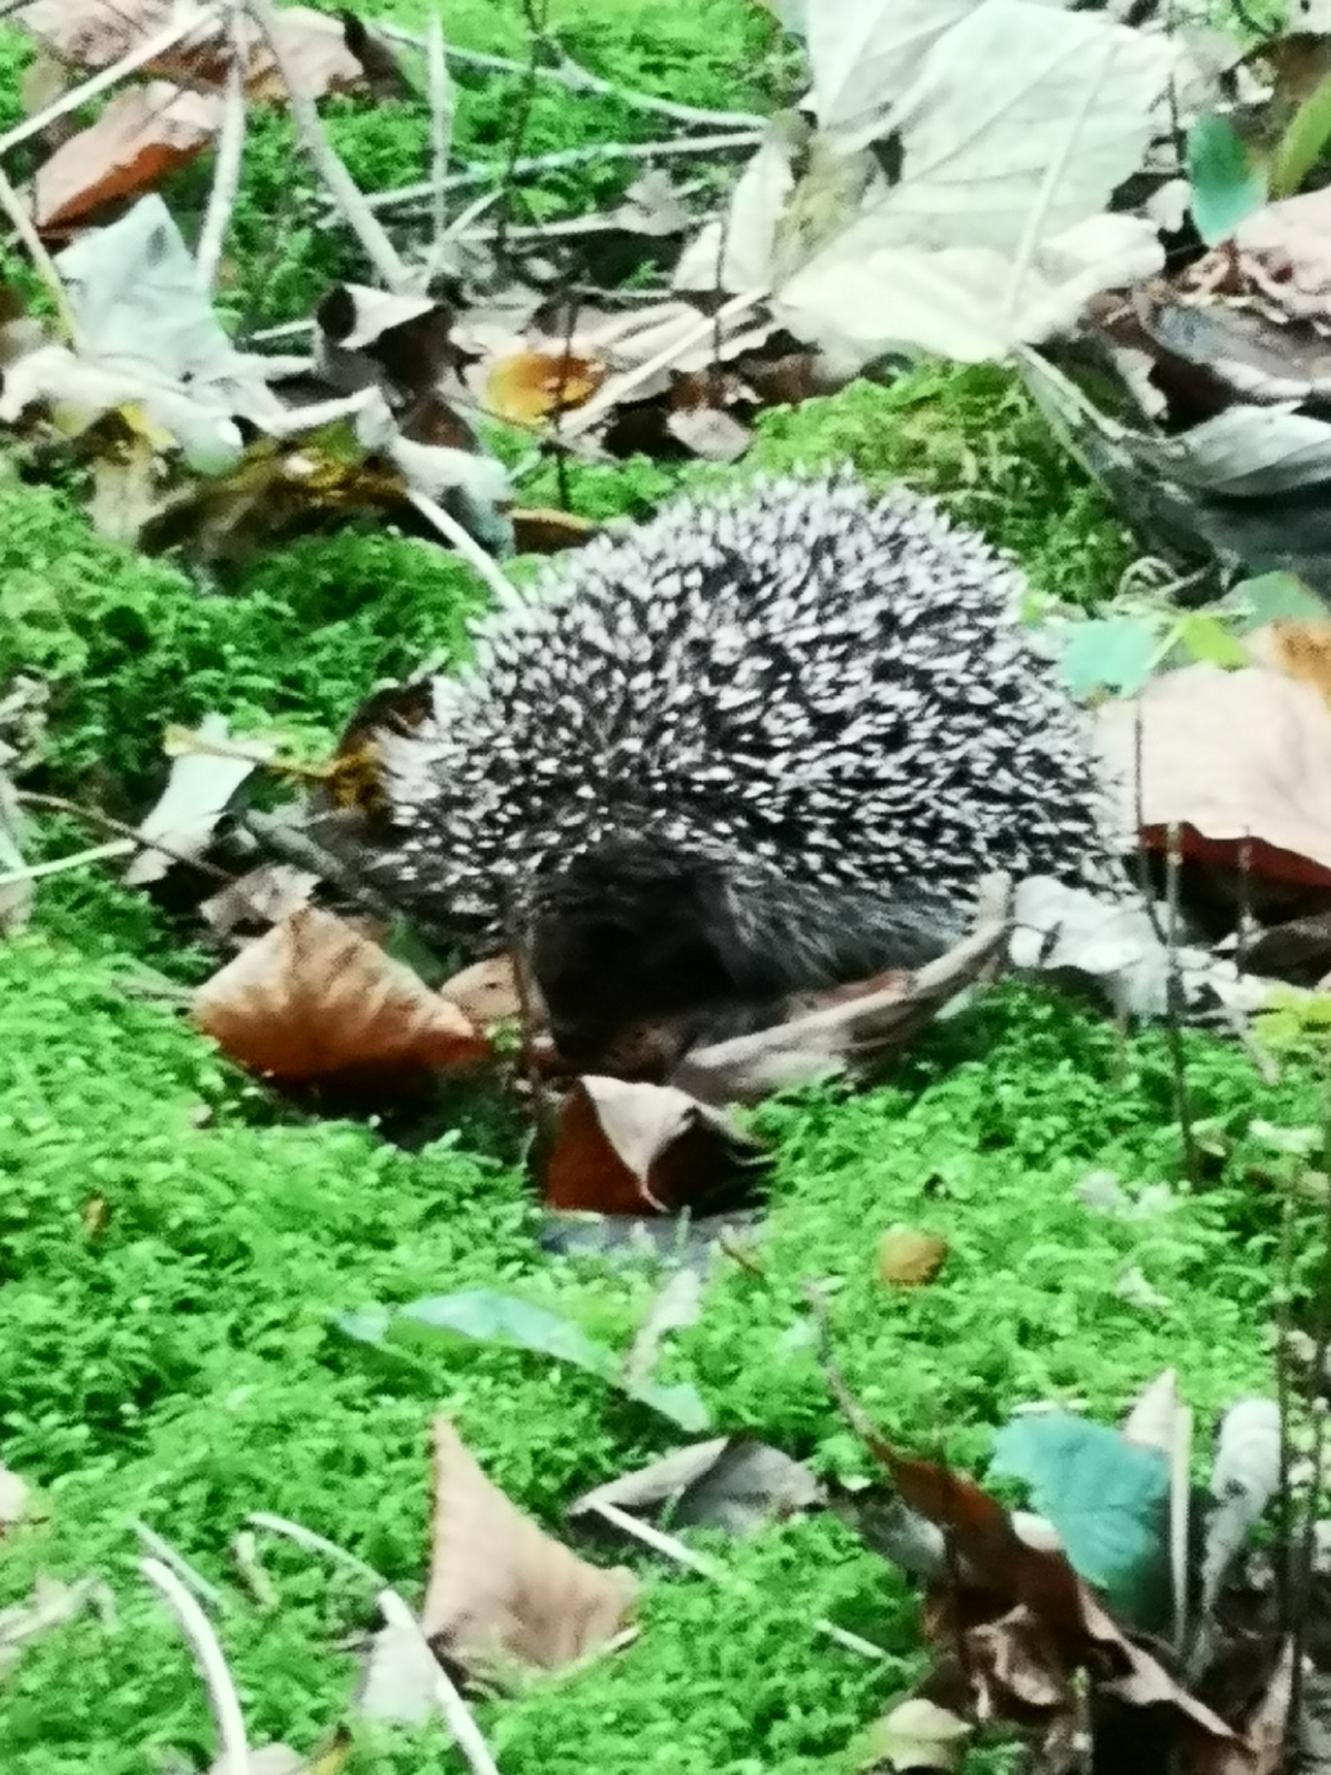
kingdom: Animalia
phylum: Chordata
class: Mammalia
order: Erinaceomorpha
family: Erinaceidae
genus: Erinaceus
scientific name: Erinaceus europaeus
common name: Pindsvin
